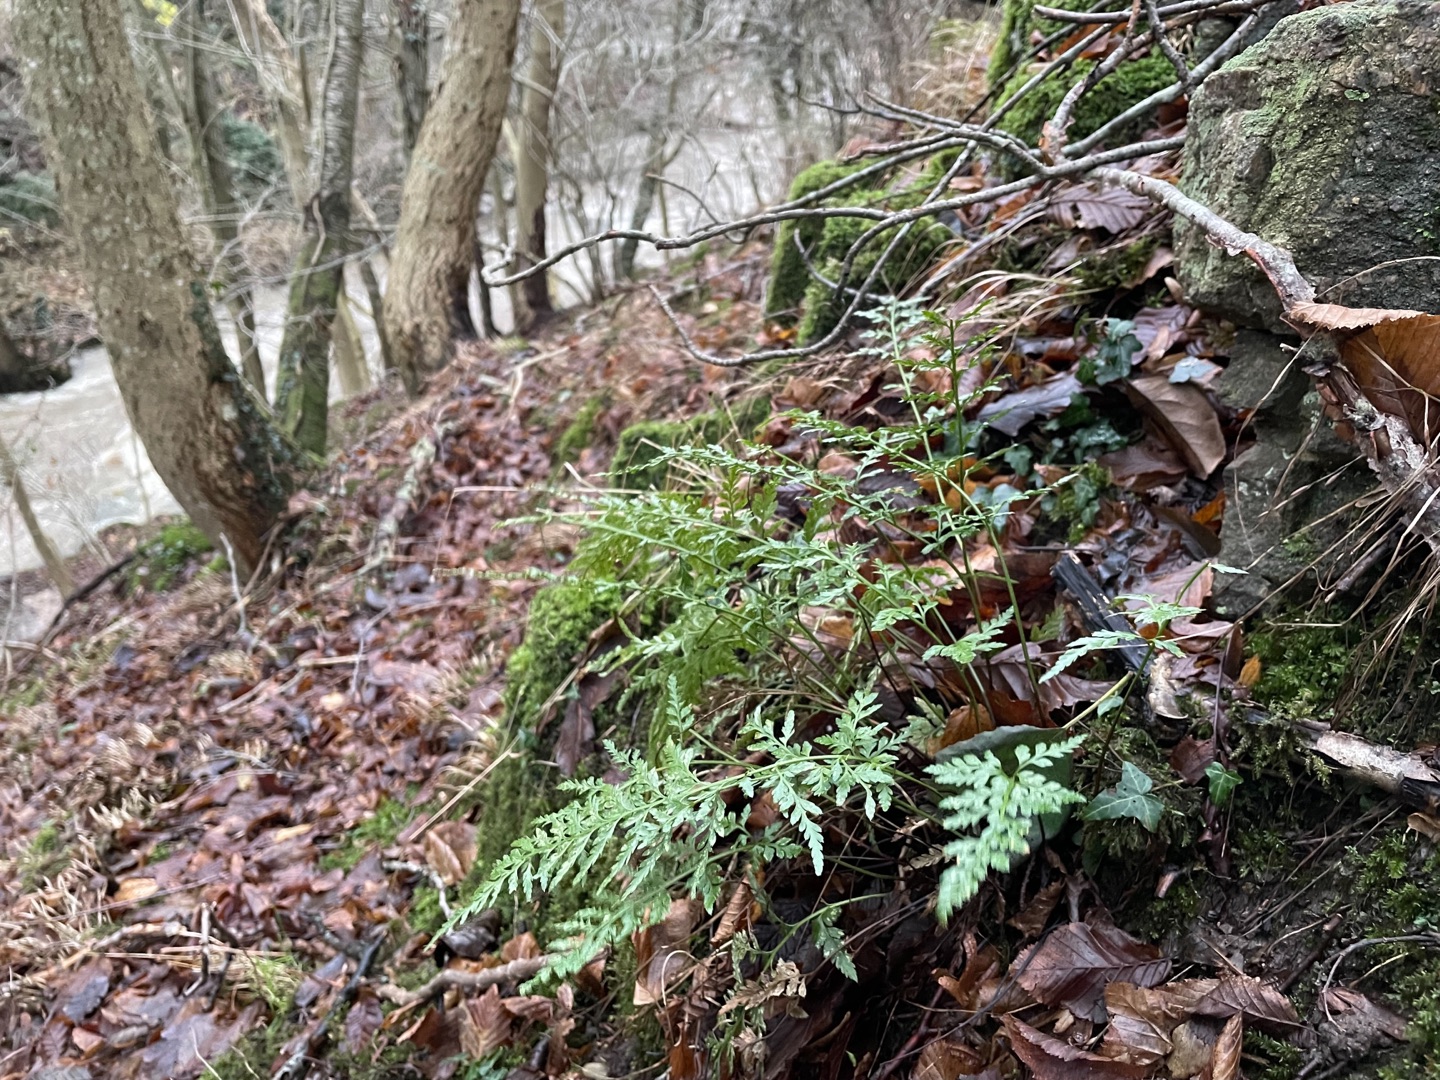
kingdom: Plantae
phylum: Tracheophyta
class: Polypodiopsida
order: Polypodiales
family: Aspleniaceae
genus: Asplenium
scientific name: Asplenium adiantum-nigrum
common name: Sort radeløv
